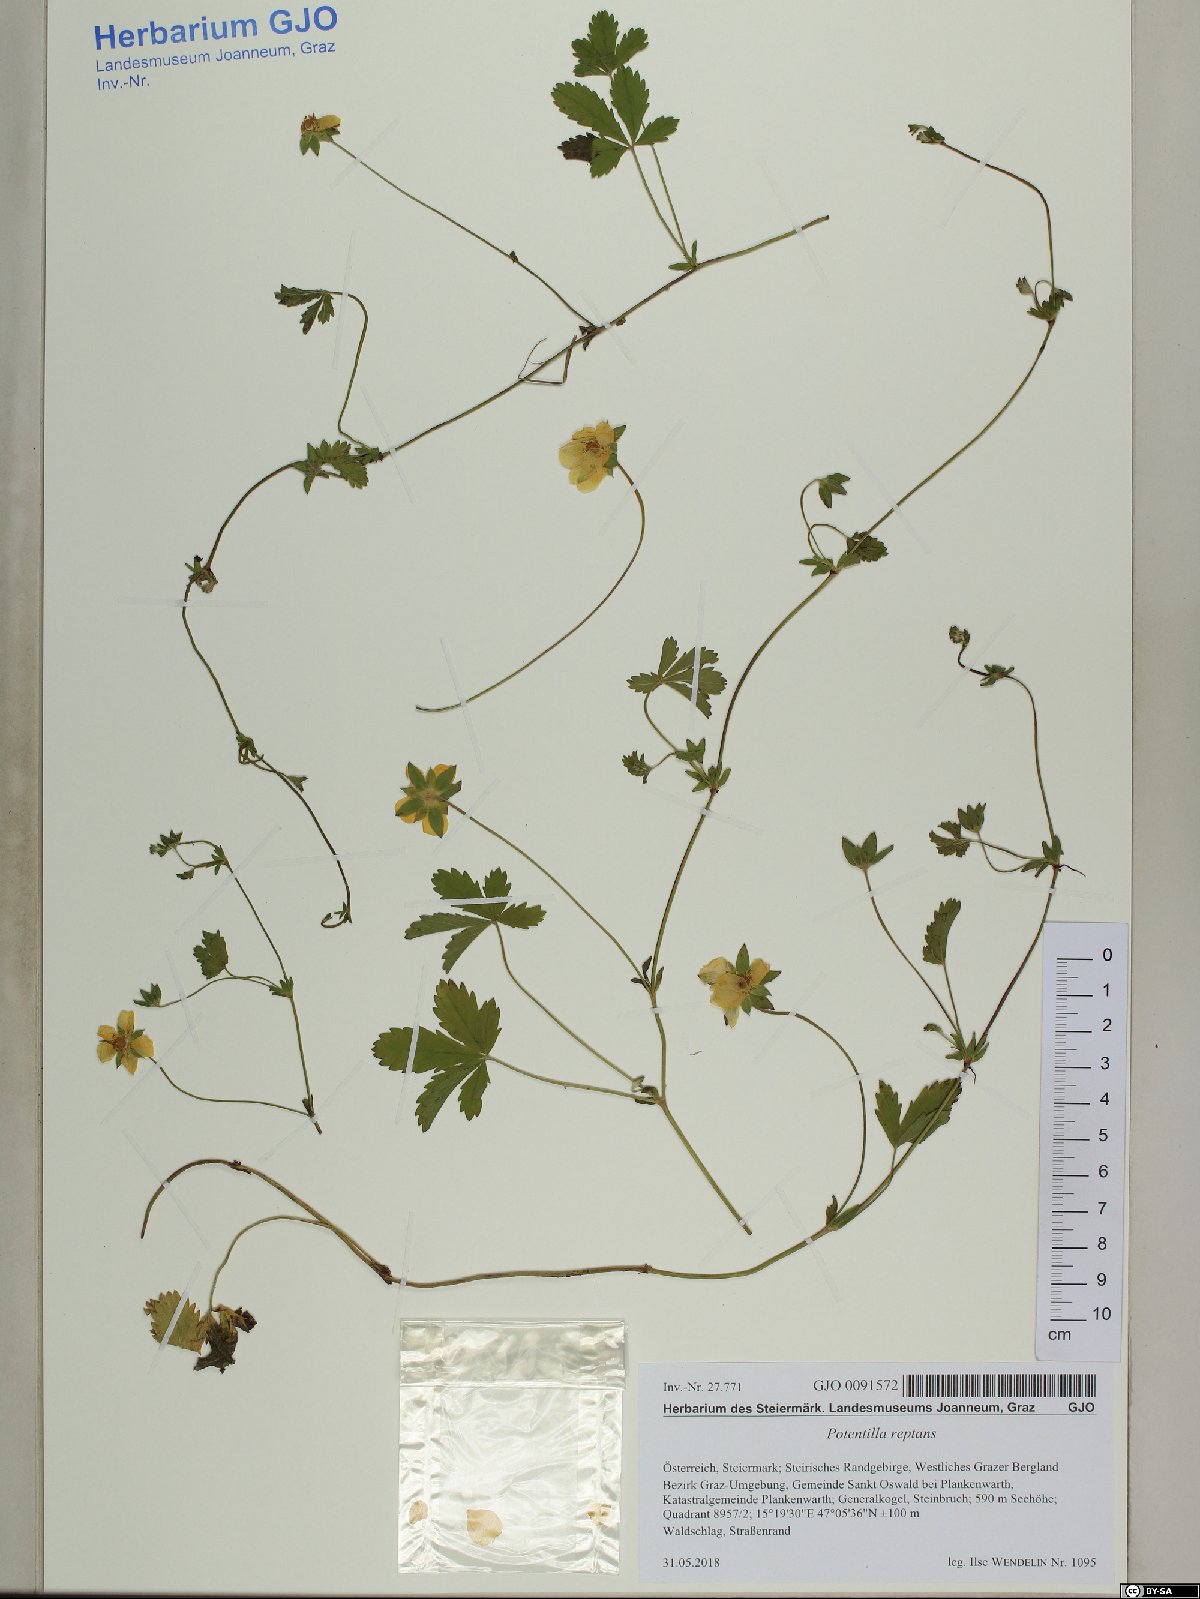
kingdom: Plantae
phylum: Tracheophyta
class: Magnoliopsida
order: Rosales
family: Rosaceae
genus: Potentilla
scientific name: Potentilla reptans
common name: Creeping cinquefoil
